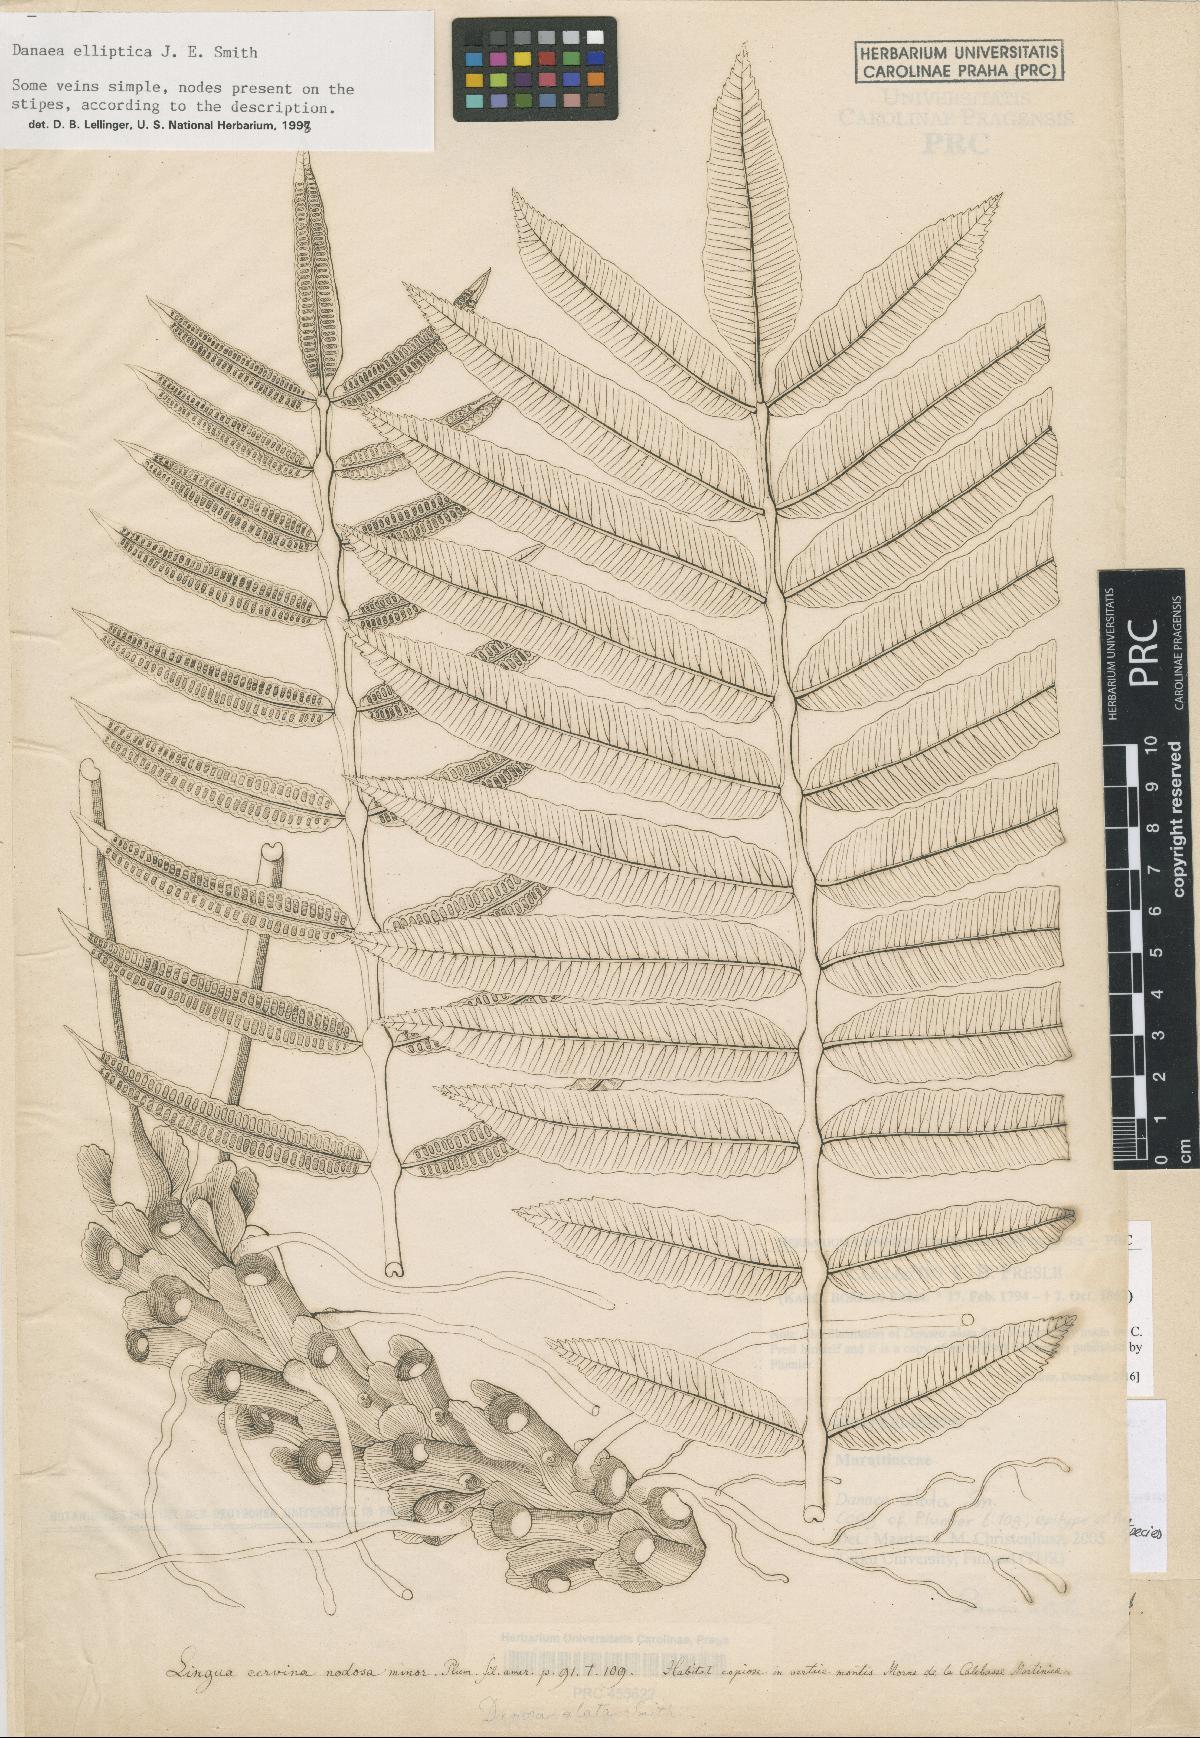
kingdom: Plantae
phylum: Tracheophyta
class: Polypodiopsida
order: Marattiales
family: Marattiaceae
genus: Danaea
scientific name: Danaea alata
